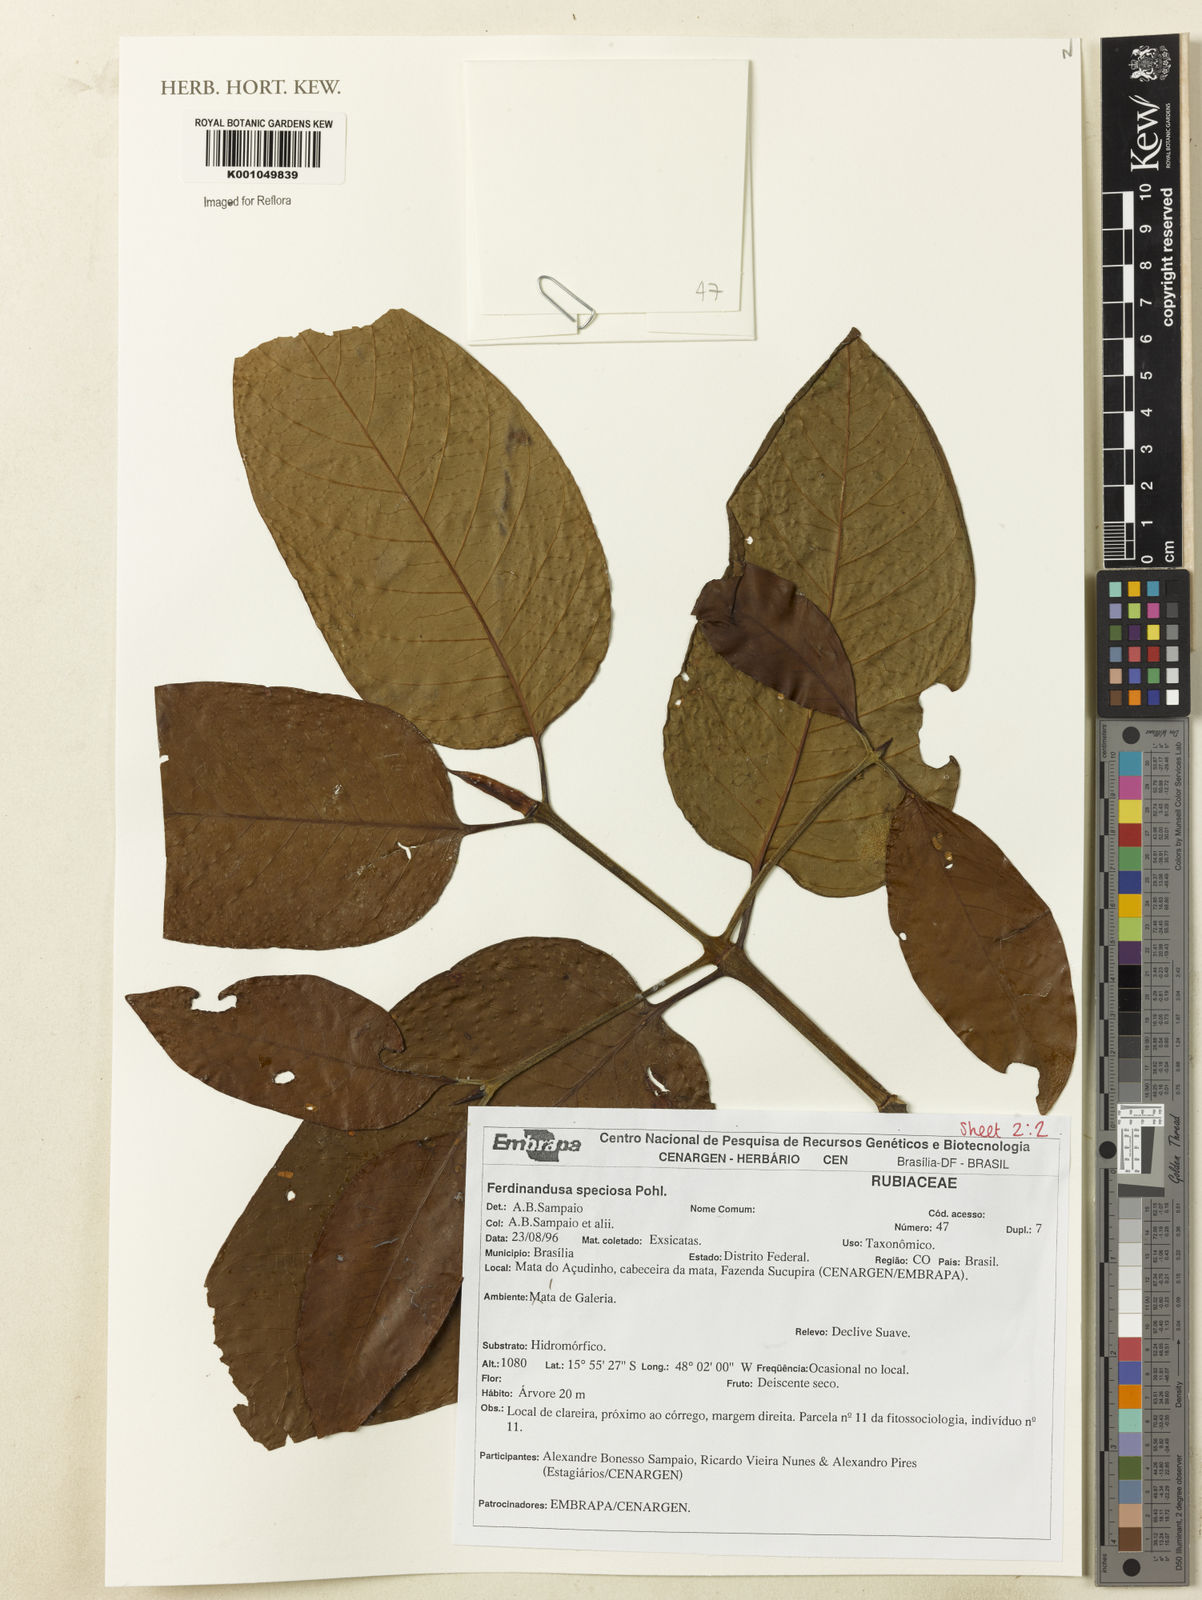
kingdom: Plantae
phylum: Tracheophyta
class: Magnoliopsida
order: Gentianales
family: Rubiaceae
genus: Ferdinandusa
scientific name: Ferdinandusa speciosa
